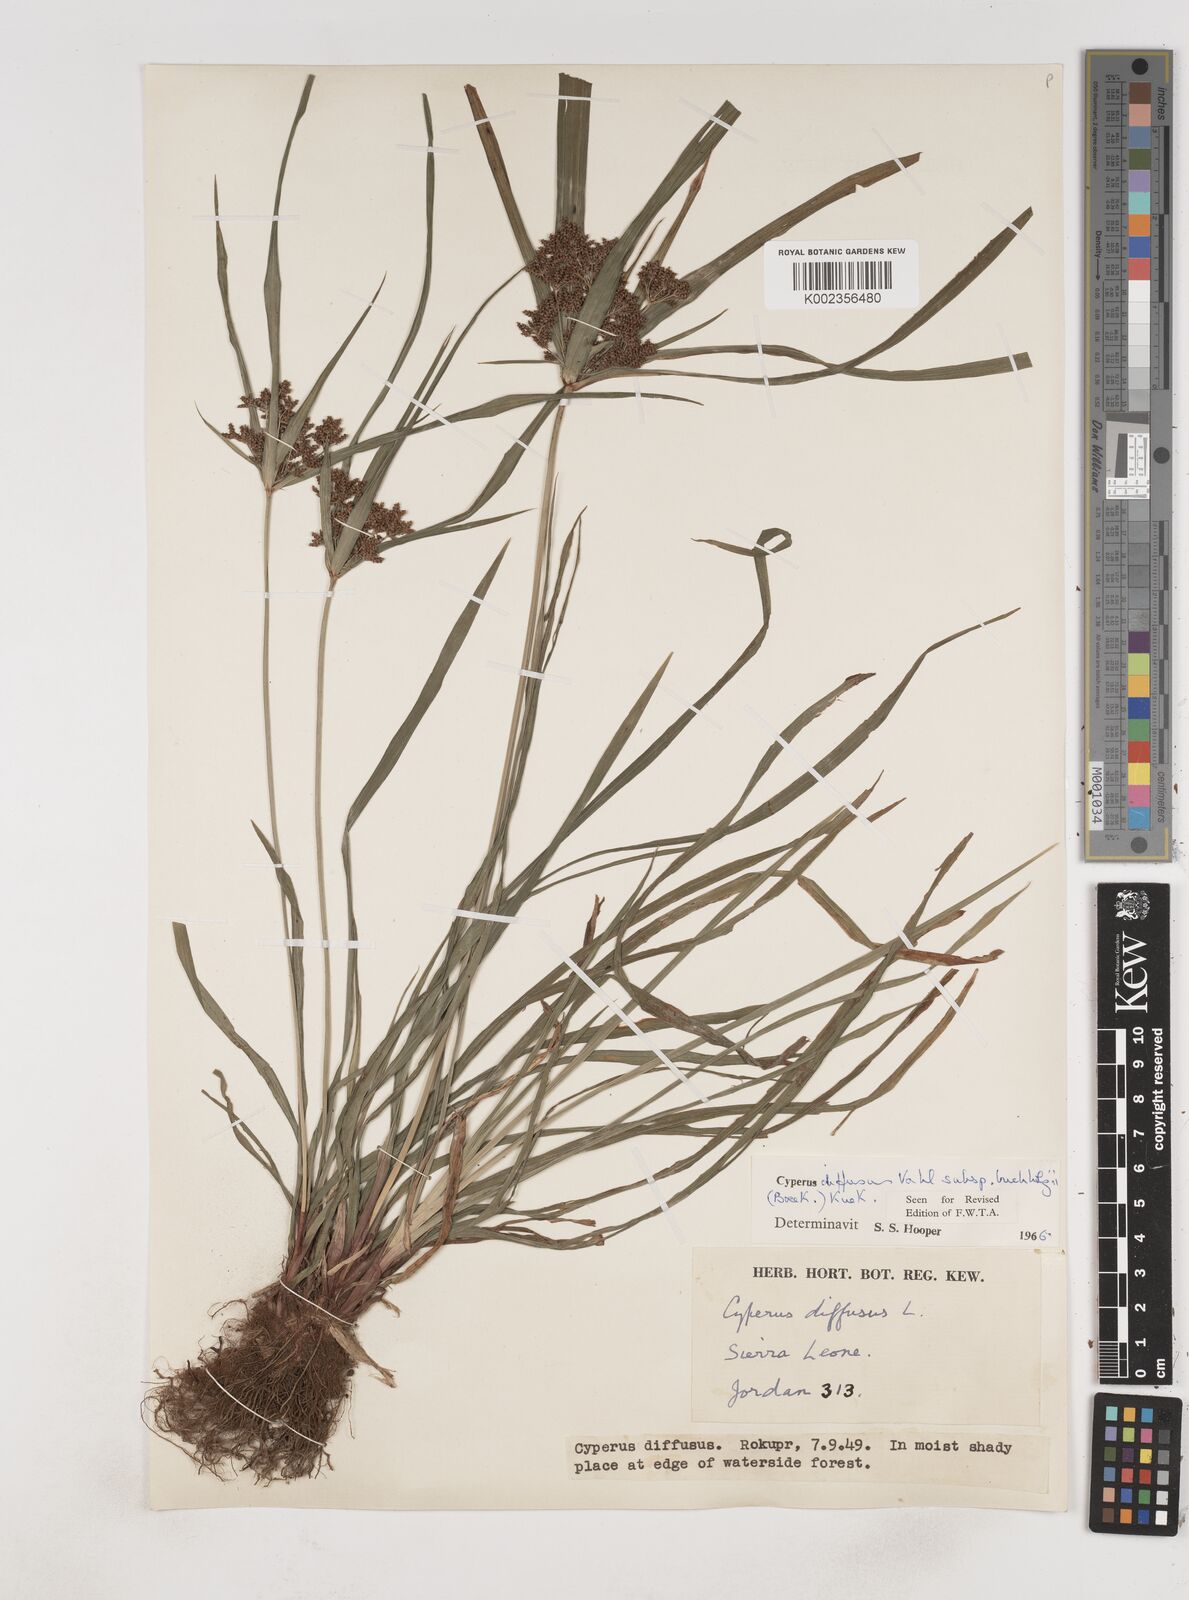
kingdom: Plantae
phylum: Tracheophyta
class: Liliopsida
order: Poales
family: Cyperaceae
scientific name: Cyperaceae
